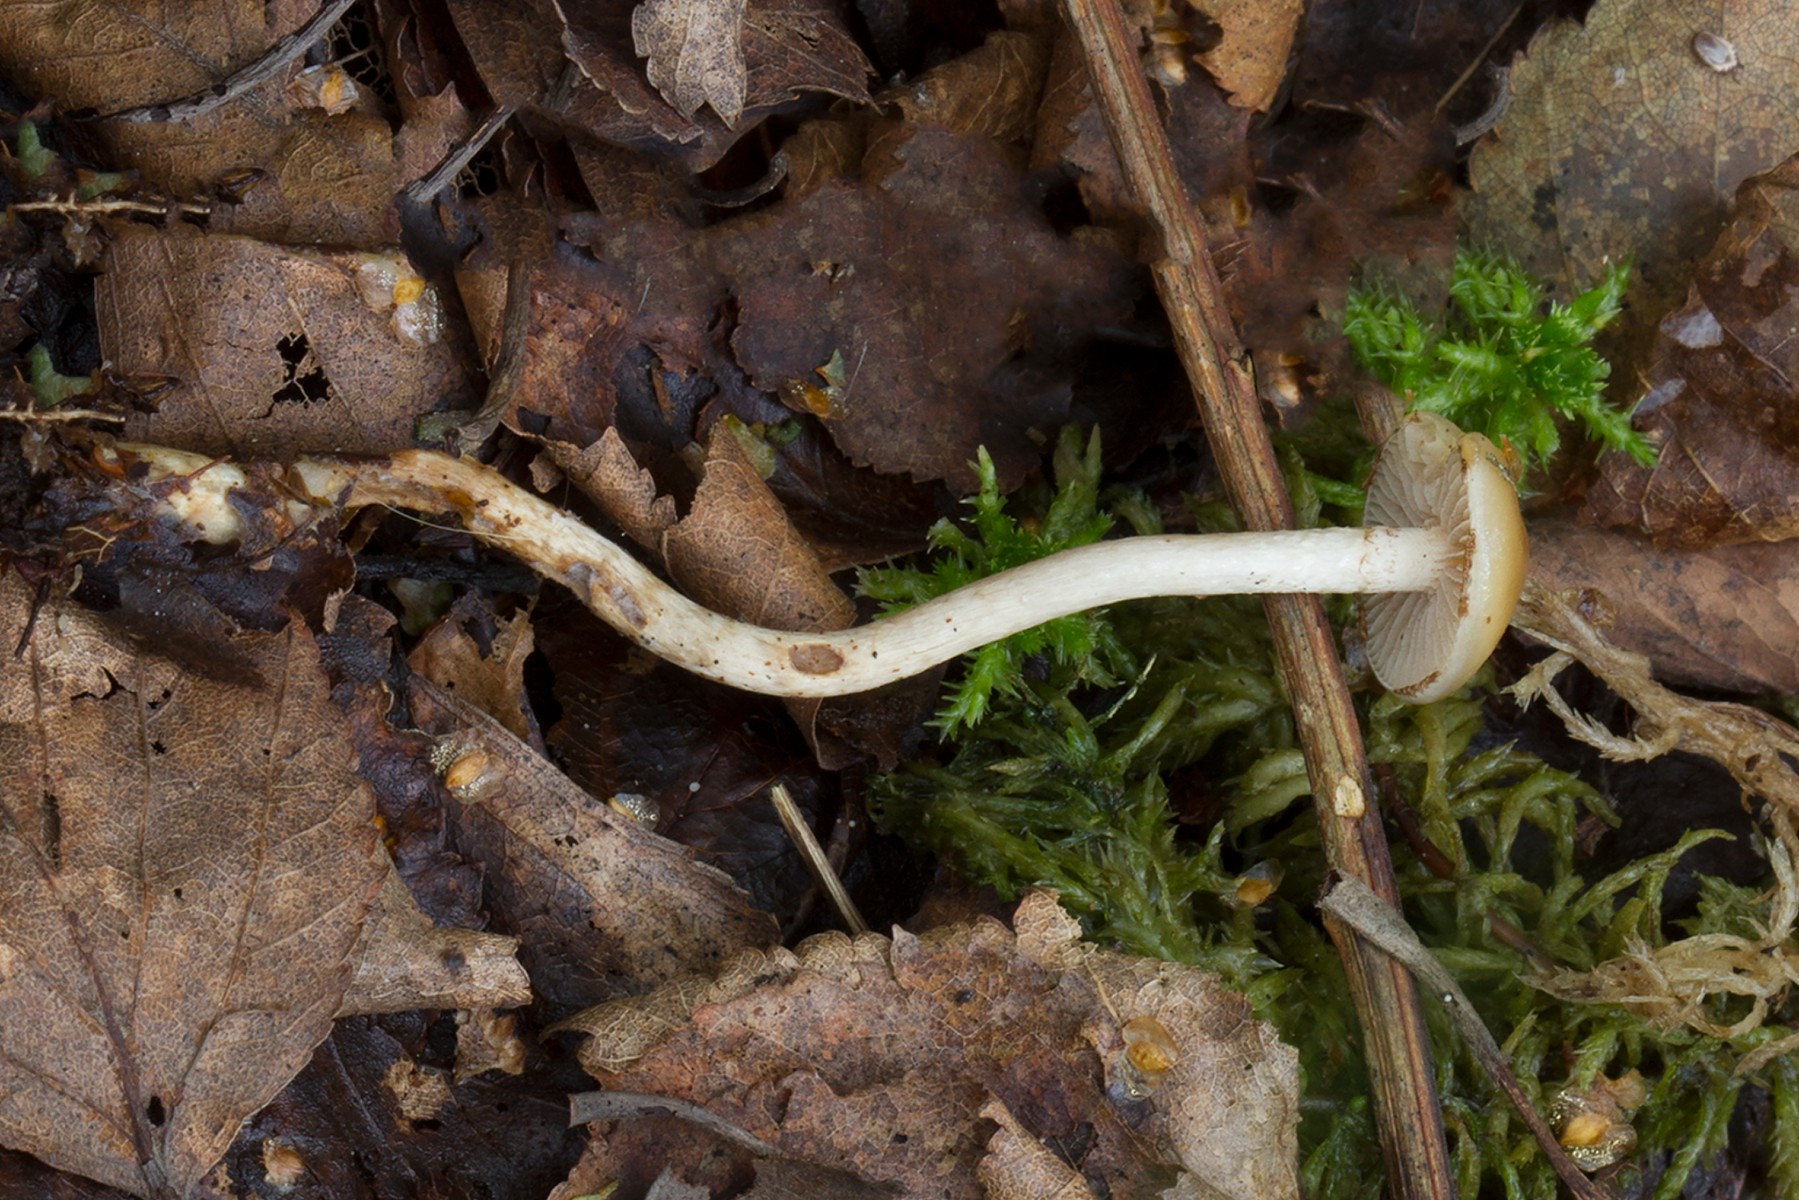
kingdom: Fungi
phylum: Basidiomycota
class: Agaricomycetes
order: Agaricales
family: Strophariaceae
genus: Hypholoma
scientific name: Hypholoma myosotis
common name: slimet svovlhat
